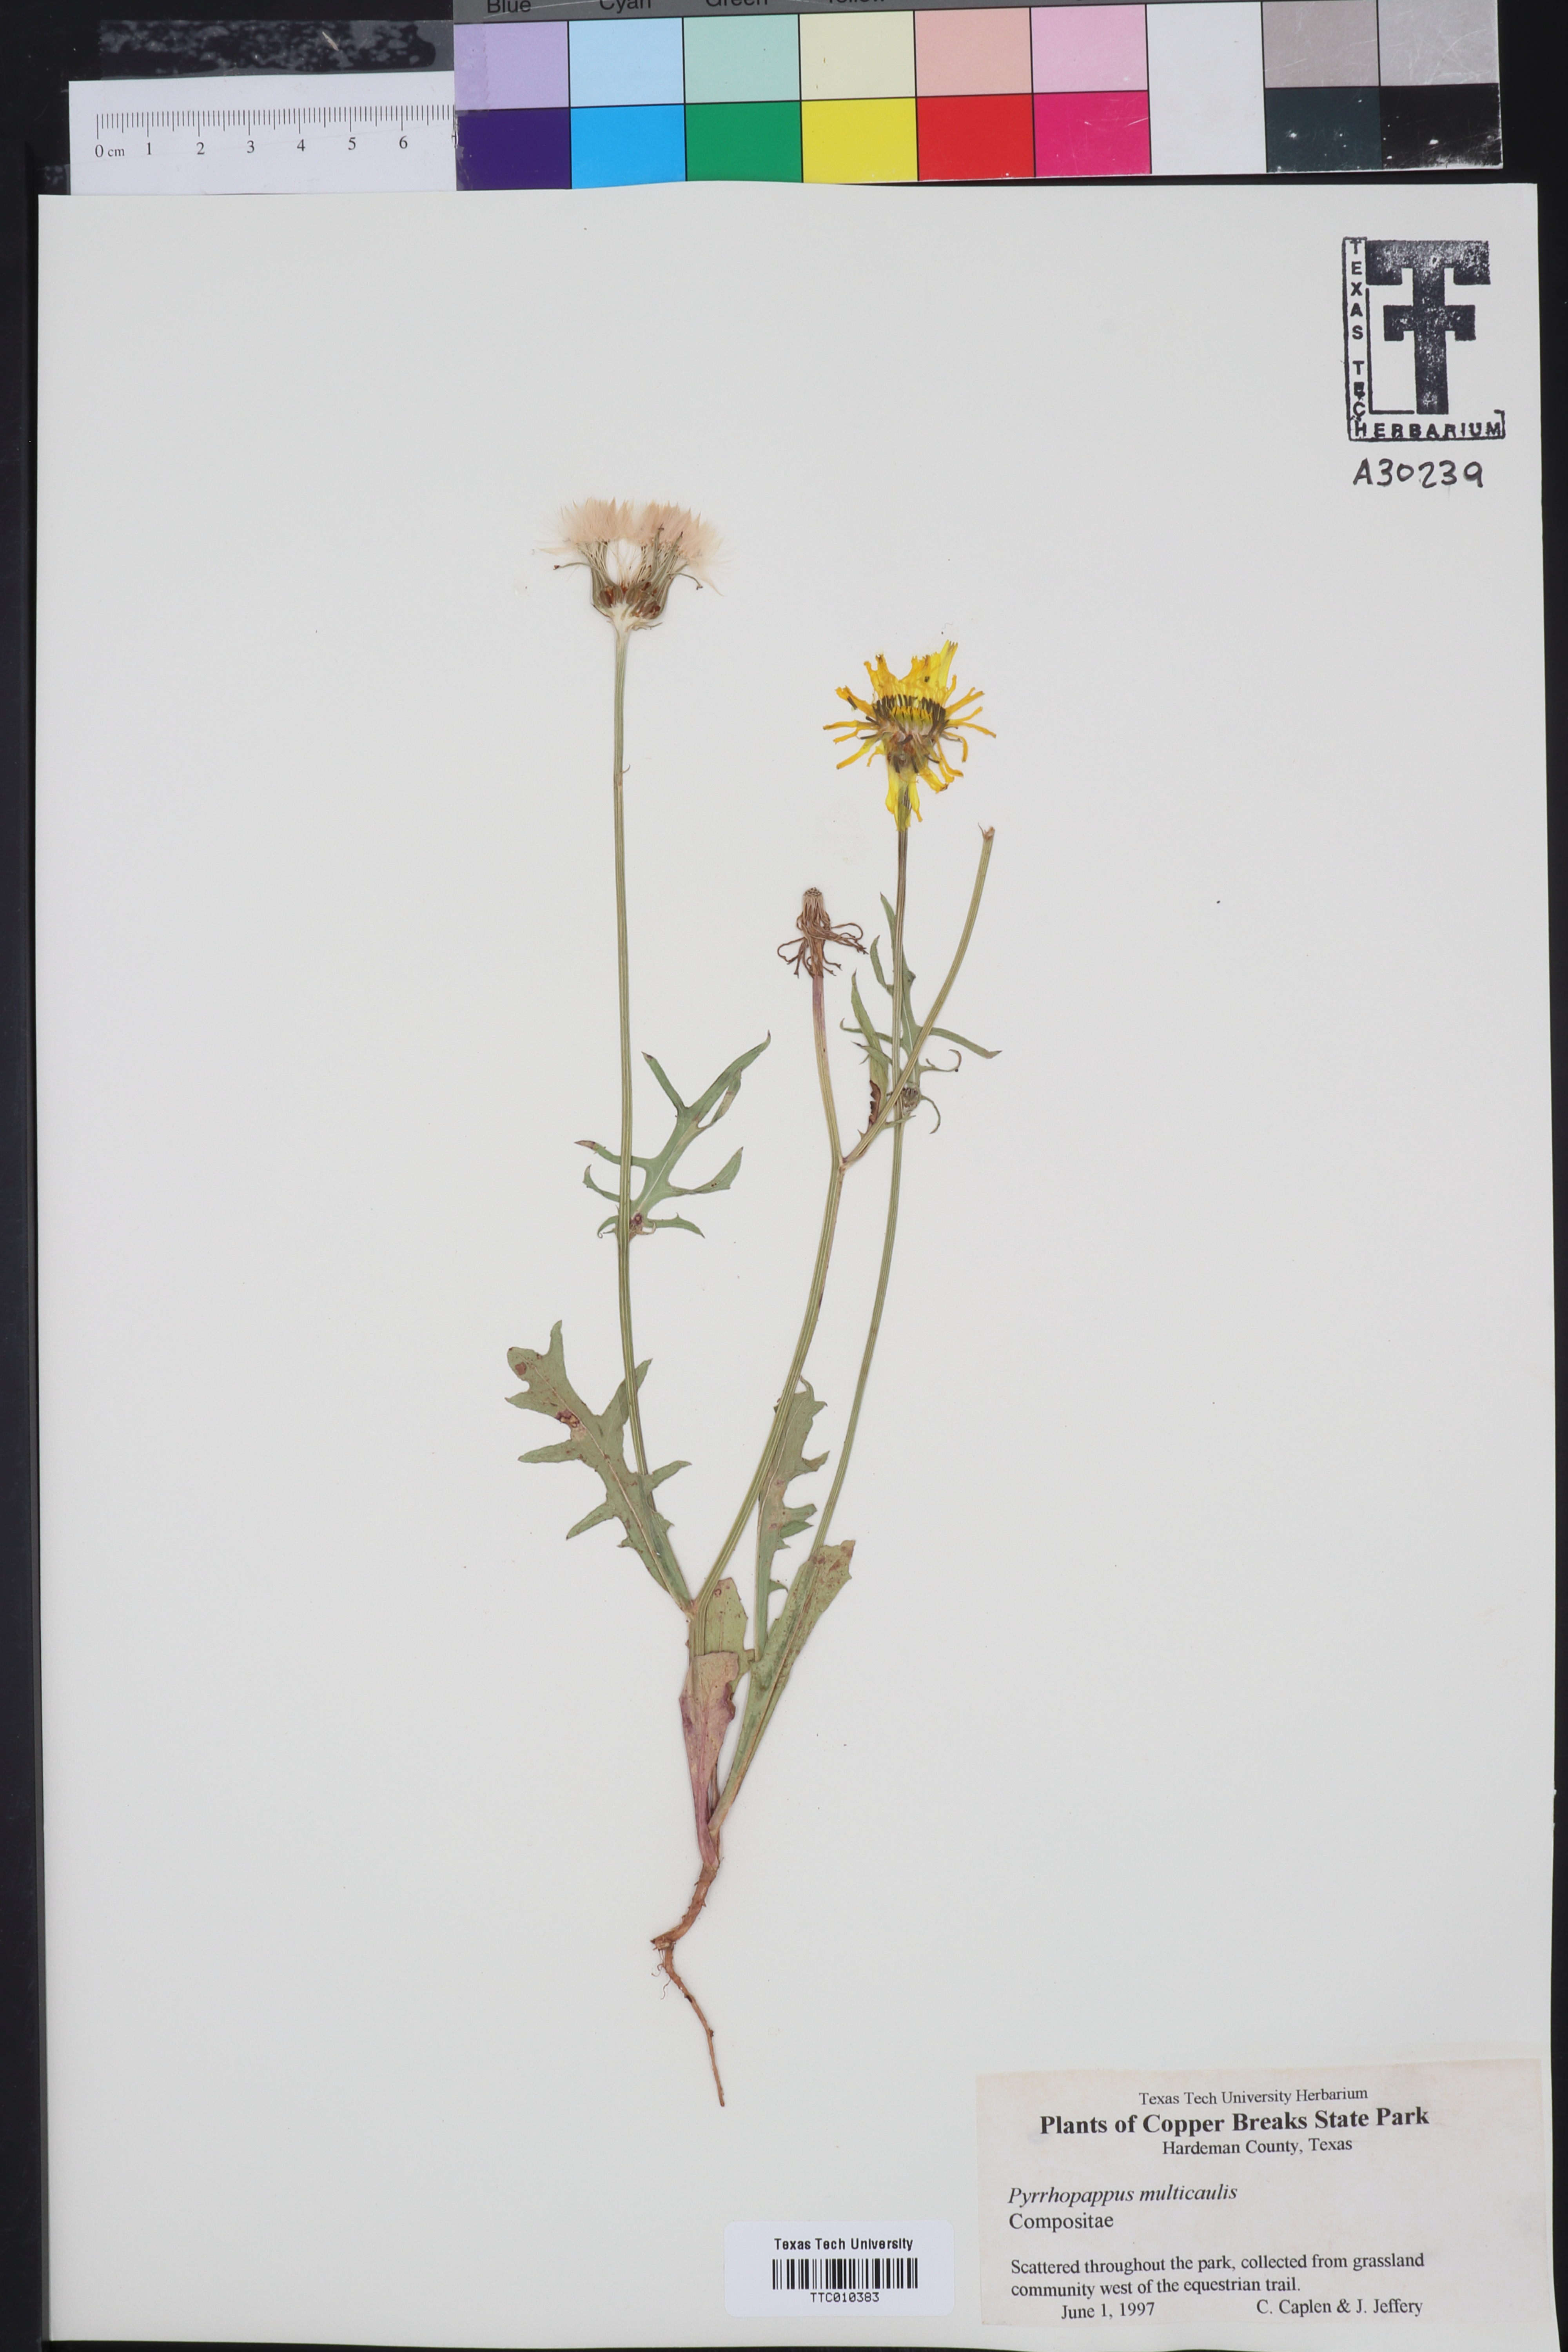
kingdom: Plantae
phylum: Tracheophyta
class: Magnoliopsida
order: Asterales
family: Asteraceae
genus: Pyrrhopappus
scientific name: Pyrrhopappus pauciflorus
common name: Texas false dandelion
